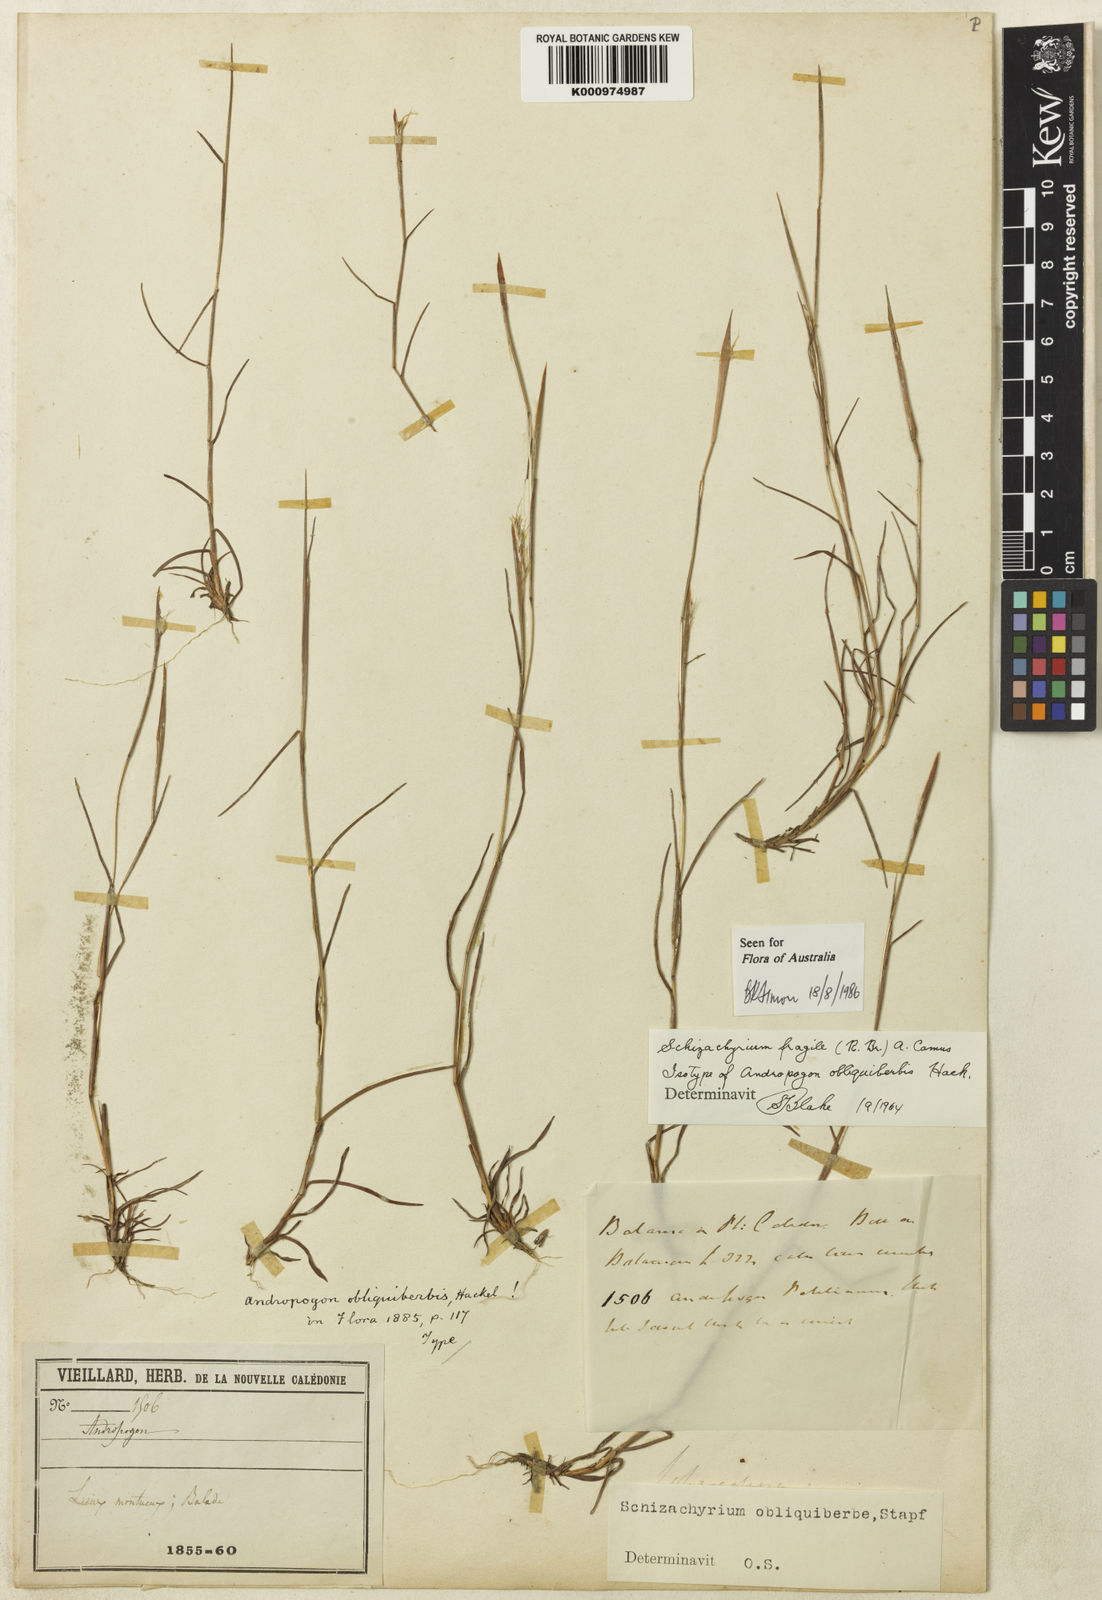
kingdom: Plantae
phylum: Tracheophyta
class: Liliopsida
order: Poales
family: Poaceae
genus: Schizachyrium
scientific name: Schizachyrium fragile
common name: Red spathe grass
